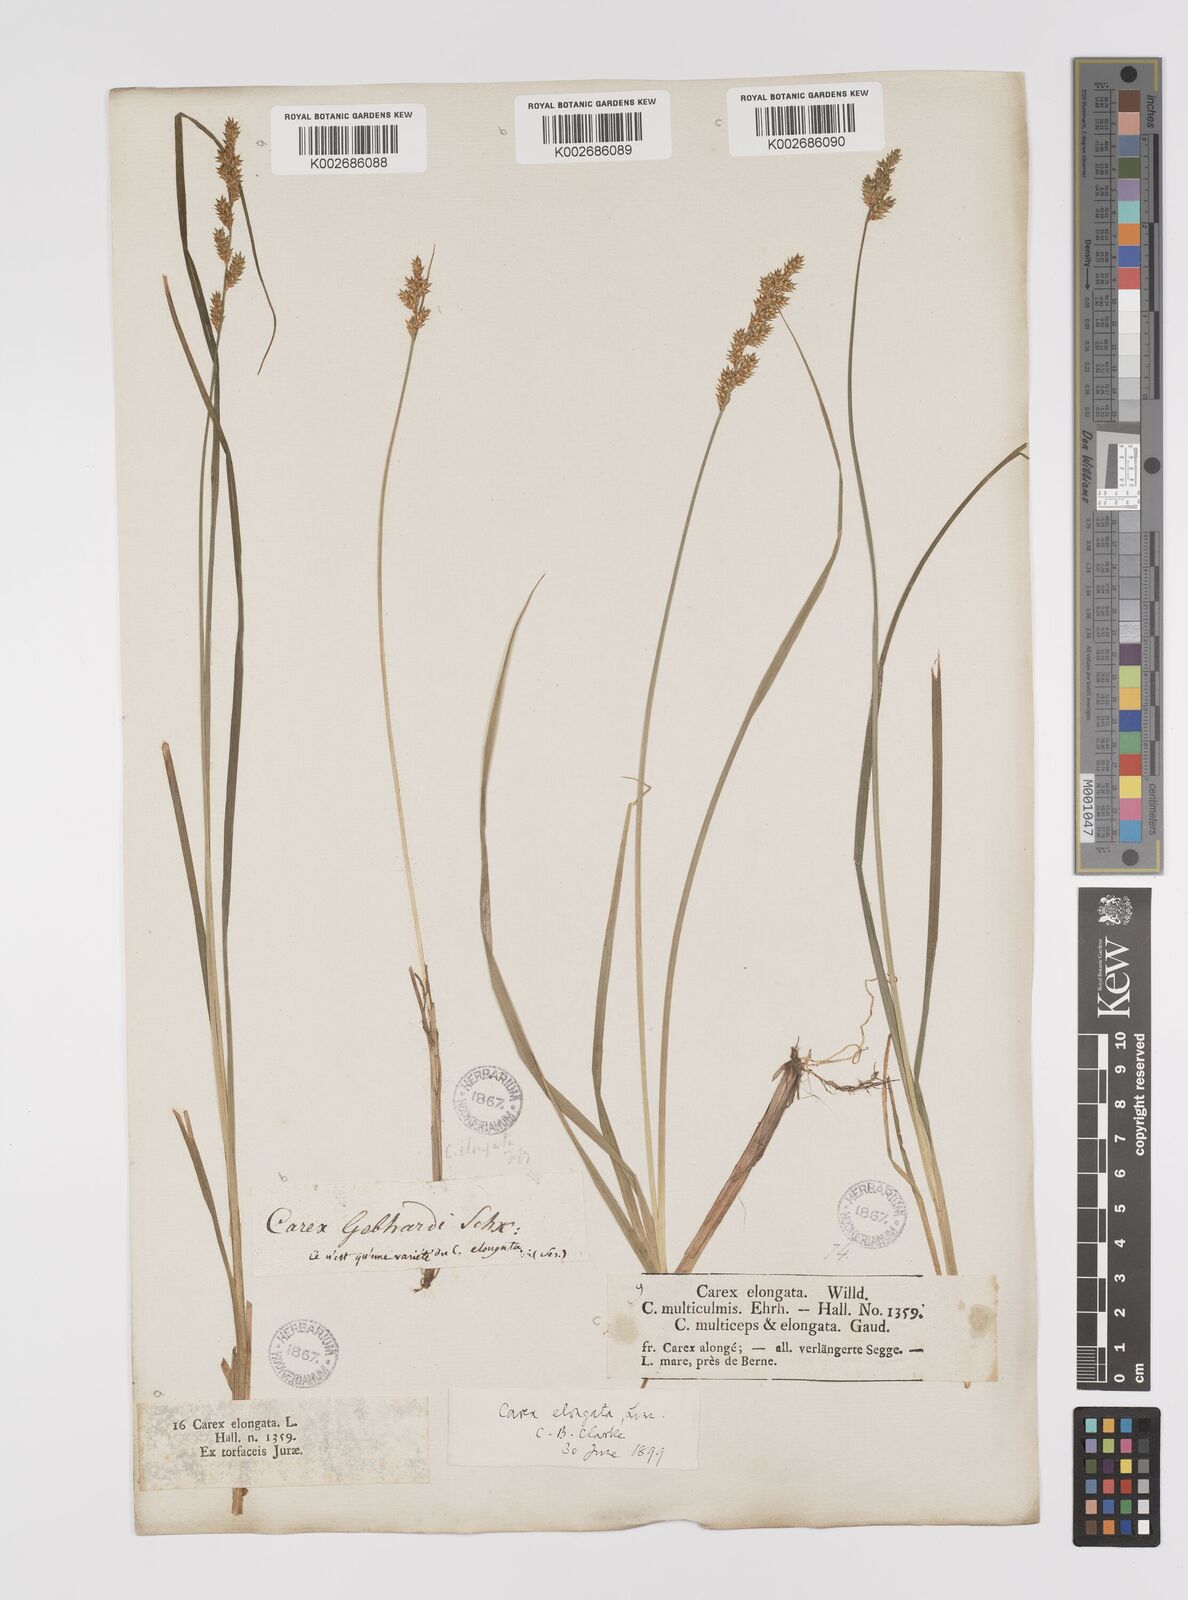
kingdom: Plantae
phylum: Tracheophyta
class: Liliopsida
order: Poales
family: Cyperaceae
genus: Carex
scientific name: Carex elongata
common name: Elongated sedge
